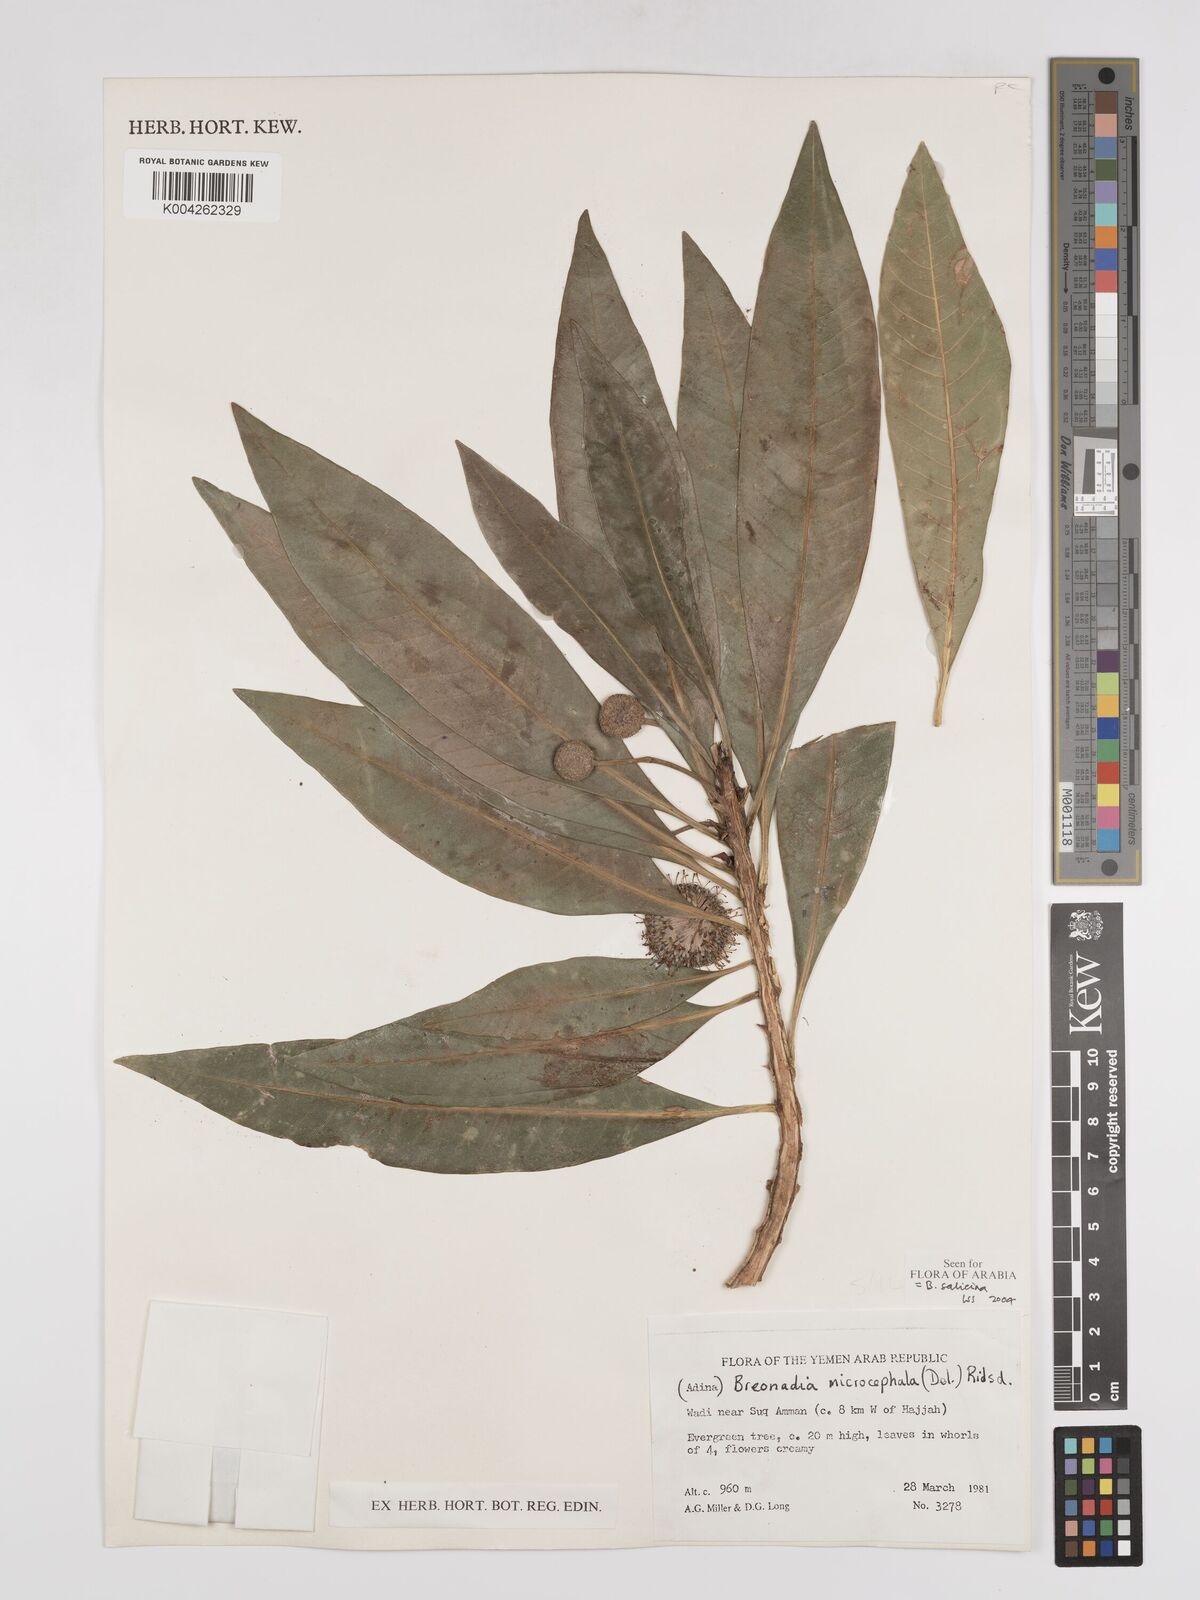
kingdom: Plantae
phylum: Tracheophyta
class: Magnoliopsida
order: Gentianales
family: Rubiaceae
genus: Breonadia
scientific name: Breonadia salicina
